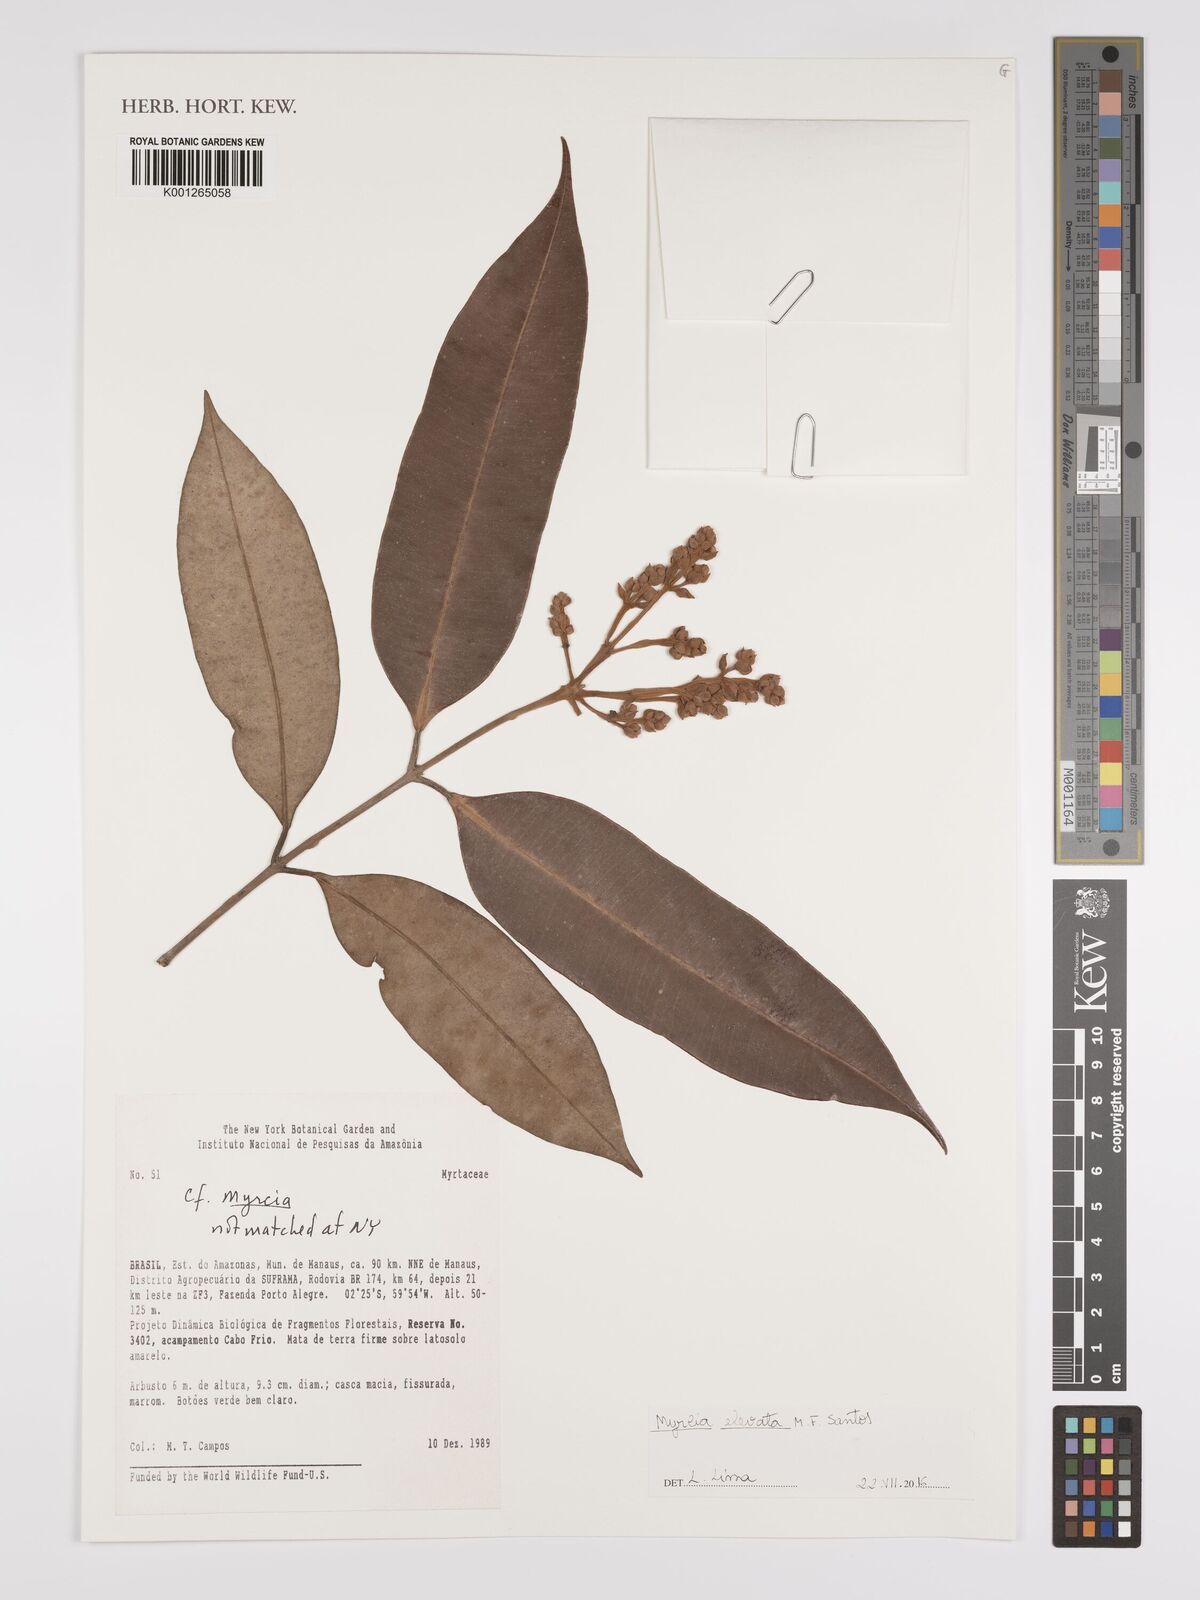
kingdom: Plantae
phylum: Tracheophyta
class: Magnoliopsida
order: Myrtales
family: Myrtaceae
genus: Myrcia
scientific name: Myrcia elevata
